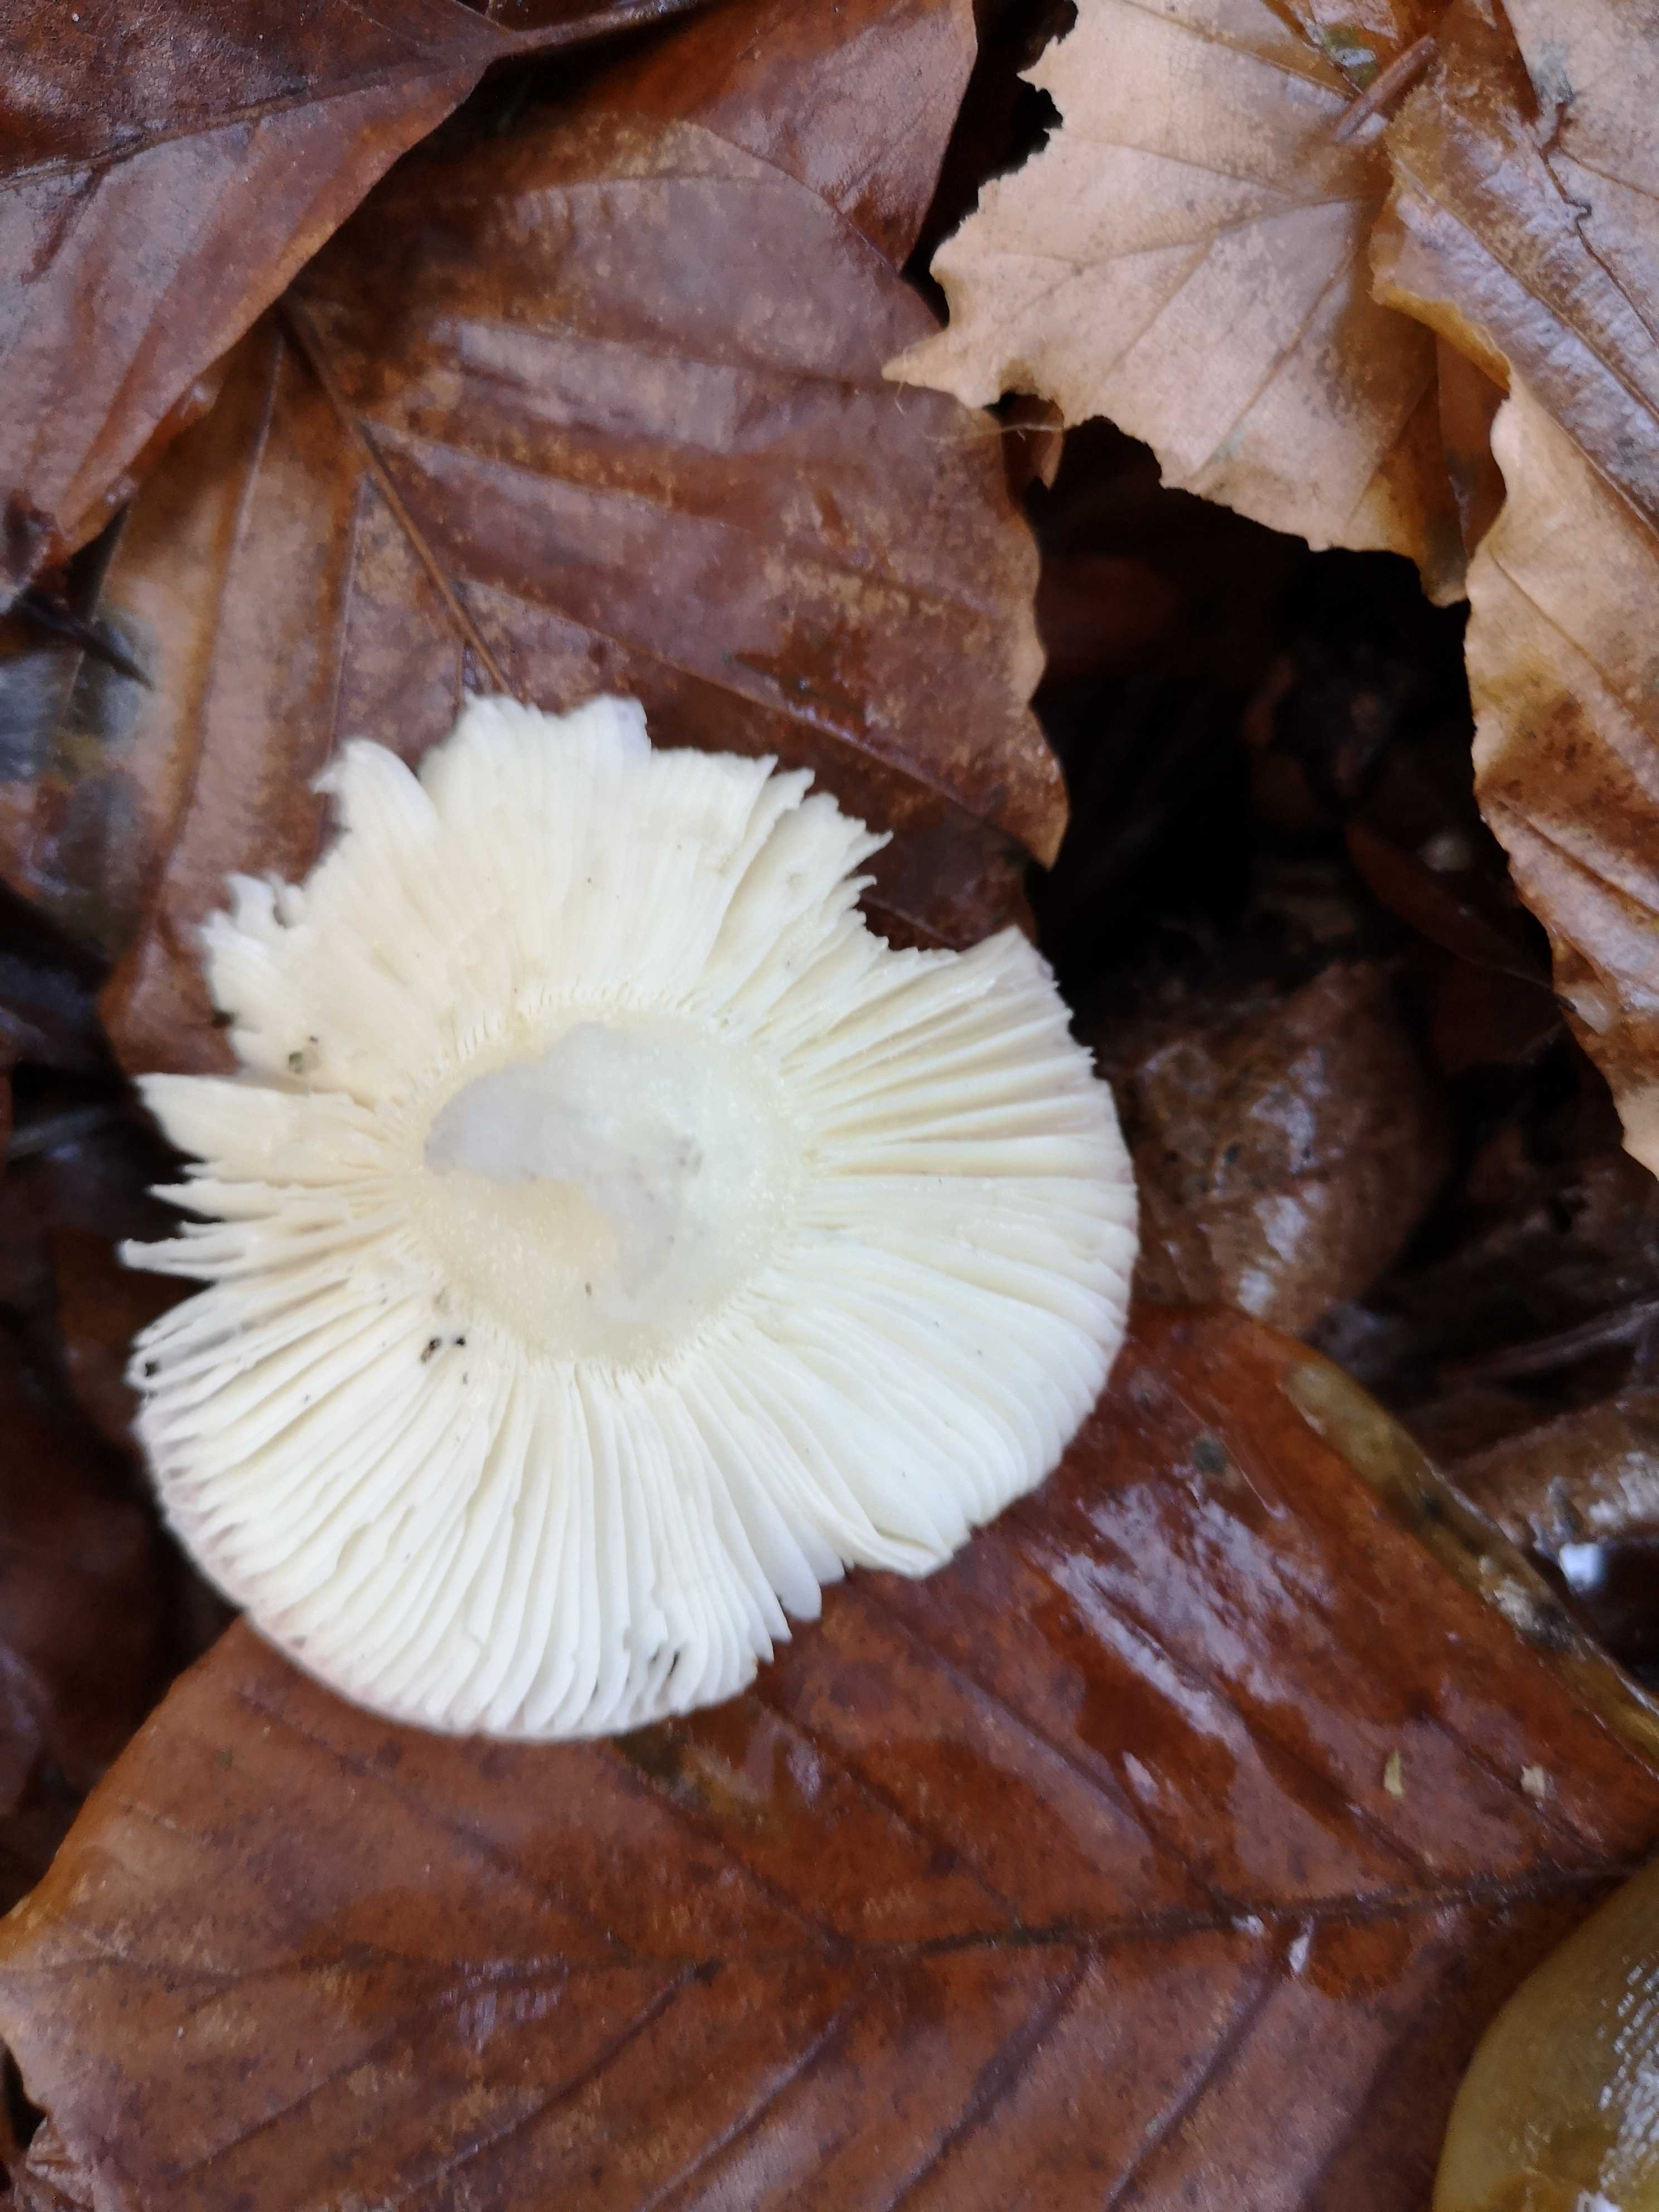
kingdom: Fungi
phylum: Basidiomycota
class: Agaricomycetes
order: Russulales
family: Russulaceae
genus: Russula
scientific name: Russula nobilis
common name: lille gift-skørhat
